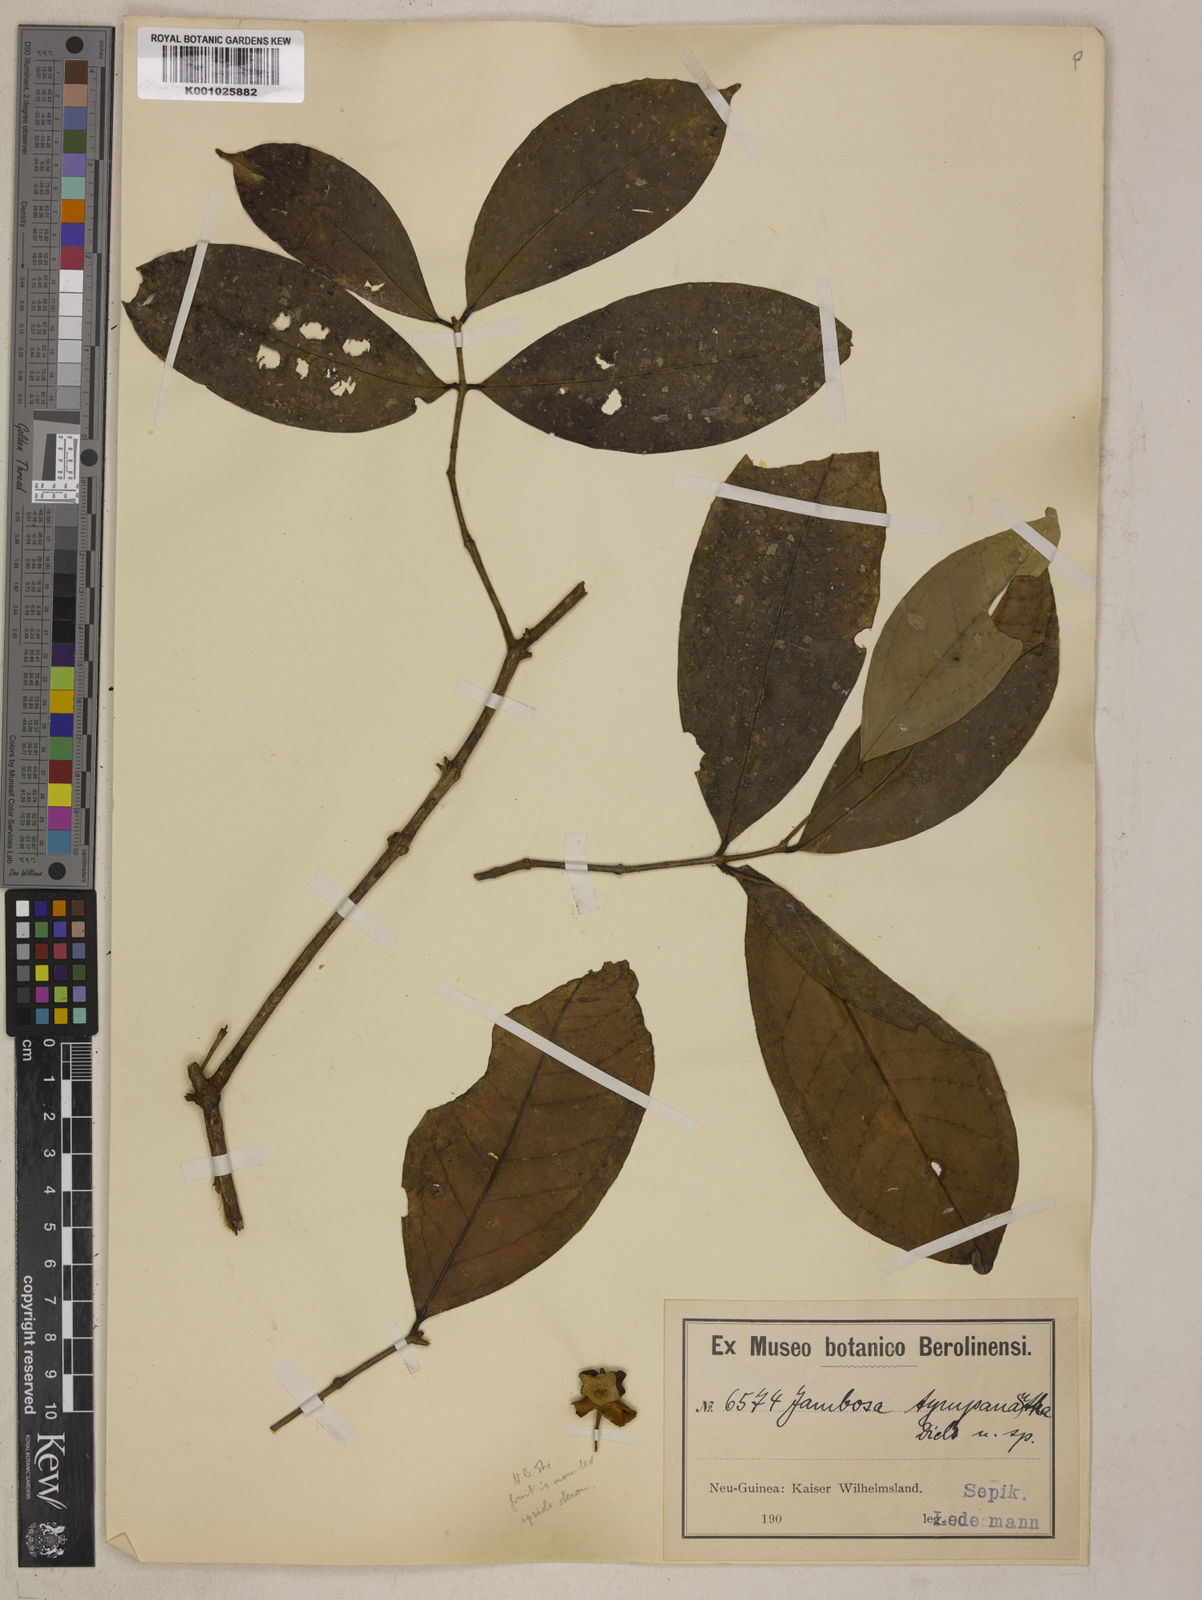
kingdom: Plantae
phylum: Tracheophyta
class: Magnoliopsida
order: Myrtales
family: Myrtaceae
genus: Syzygium
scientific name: Syzygium tympananthum
